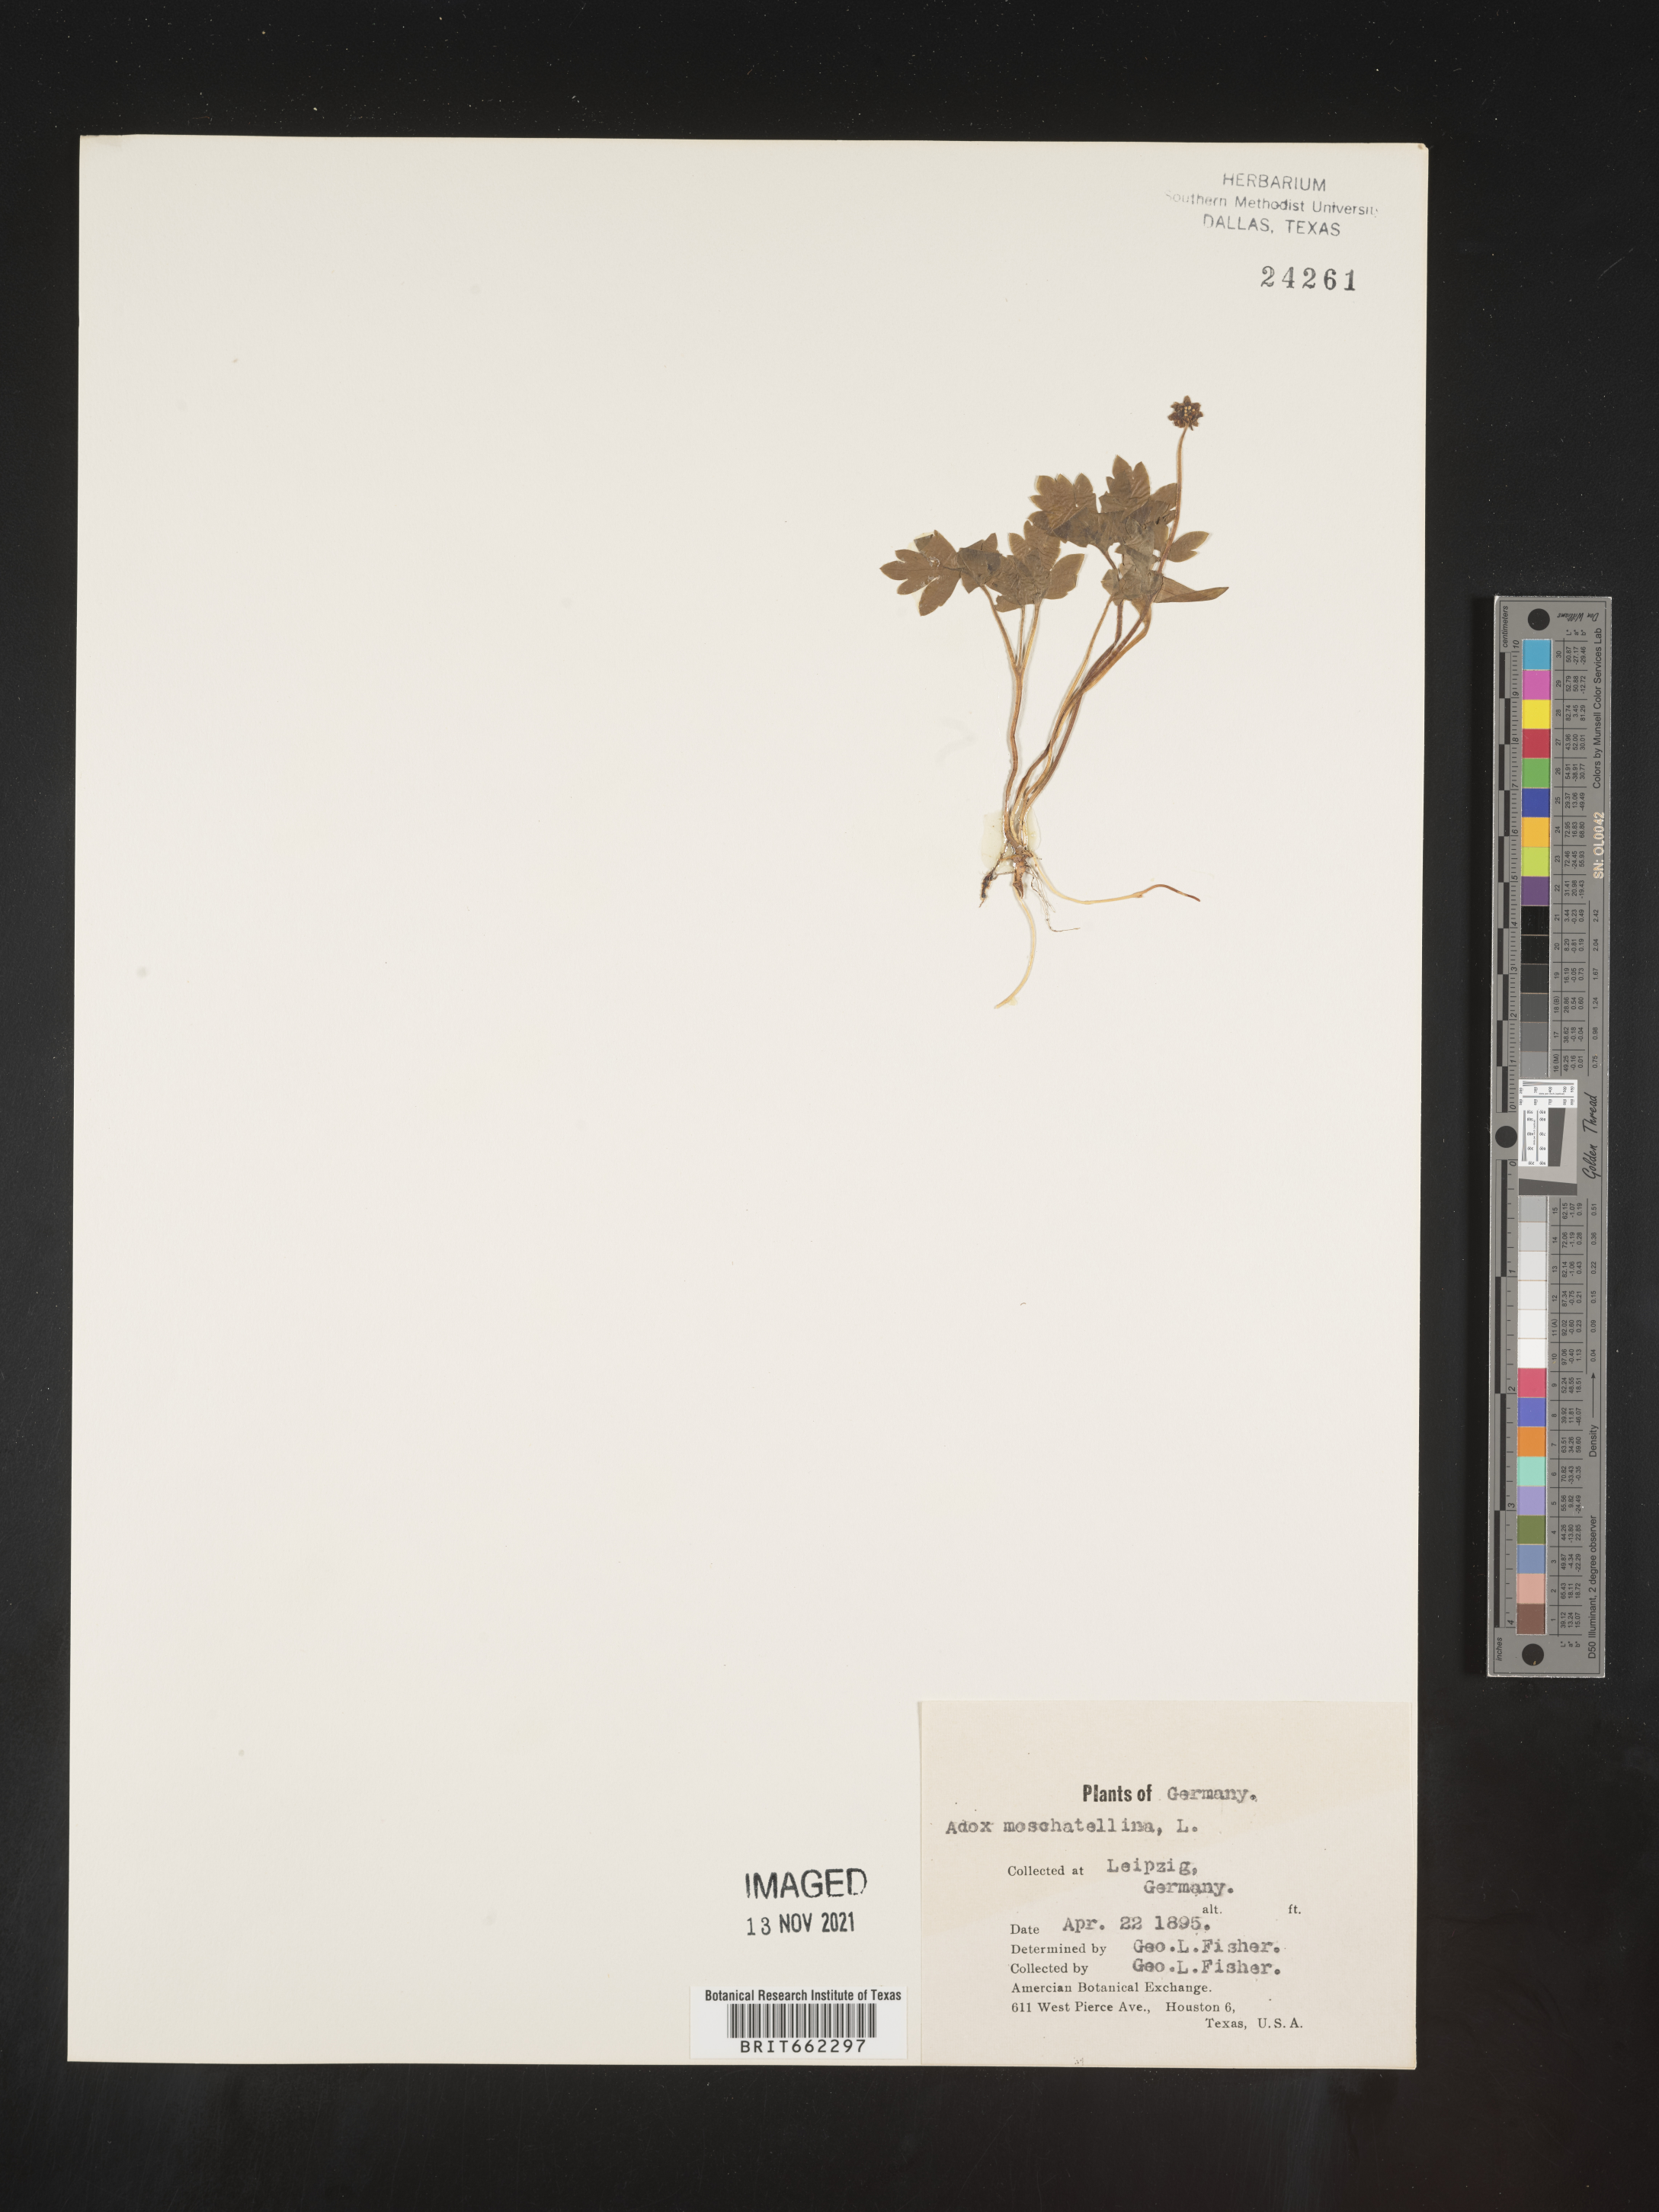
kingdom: Plantae
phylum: Tracheophyta
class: Magnoliopsida
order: Dipsacales
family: Viburnaceae
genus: Adoxa
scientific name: Adoxa
